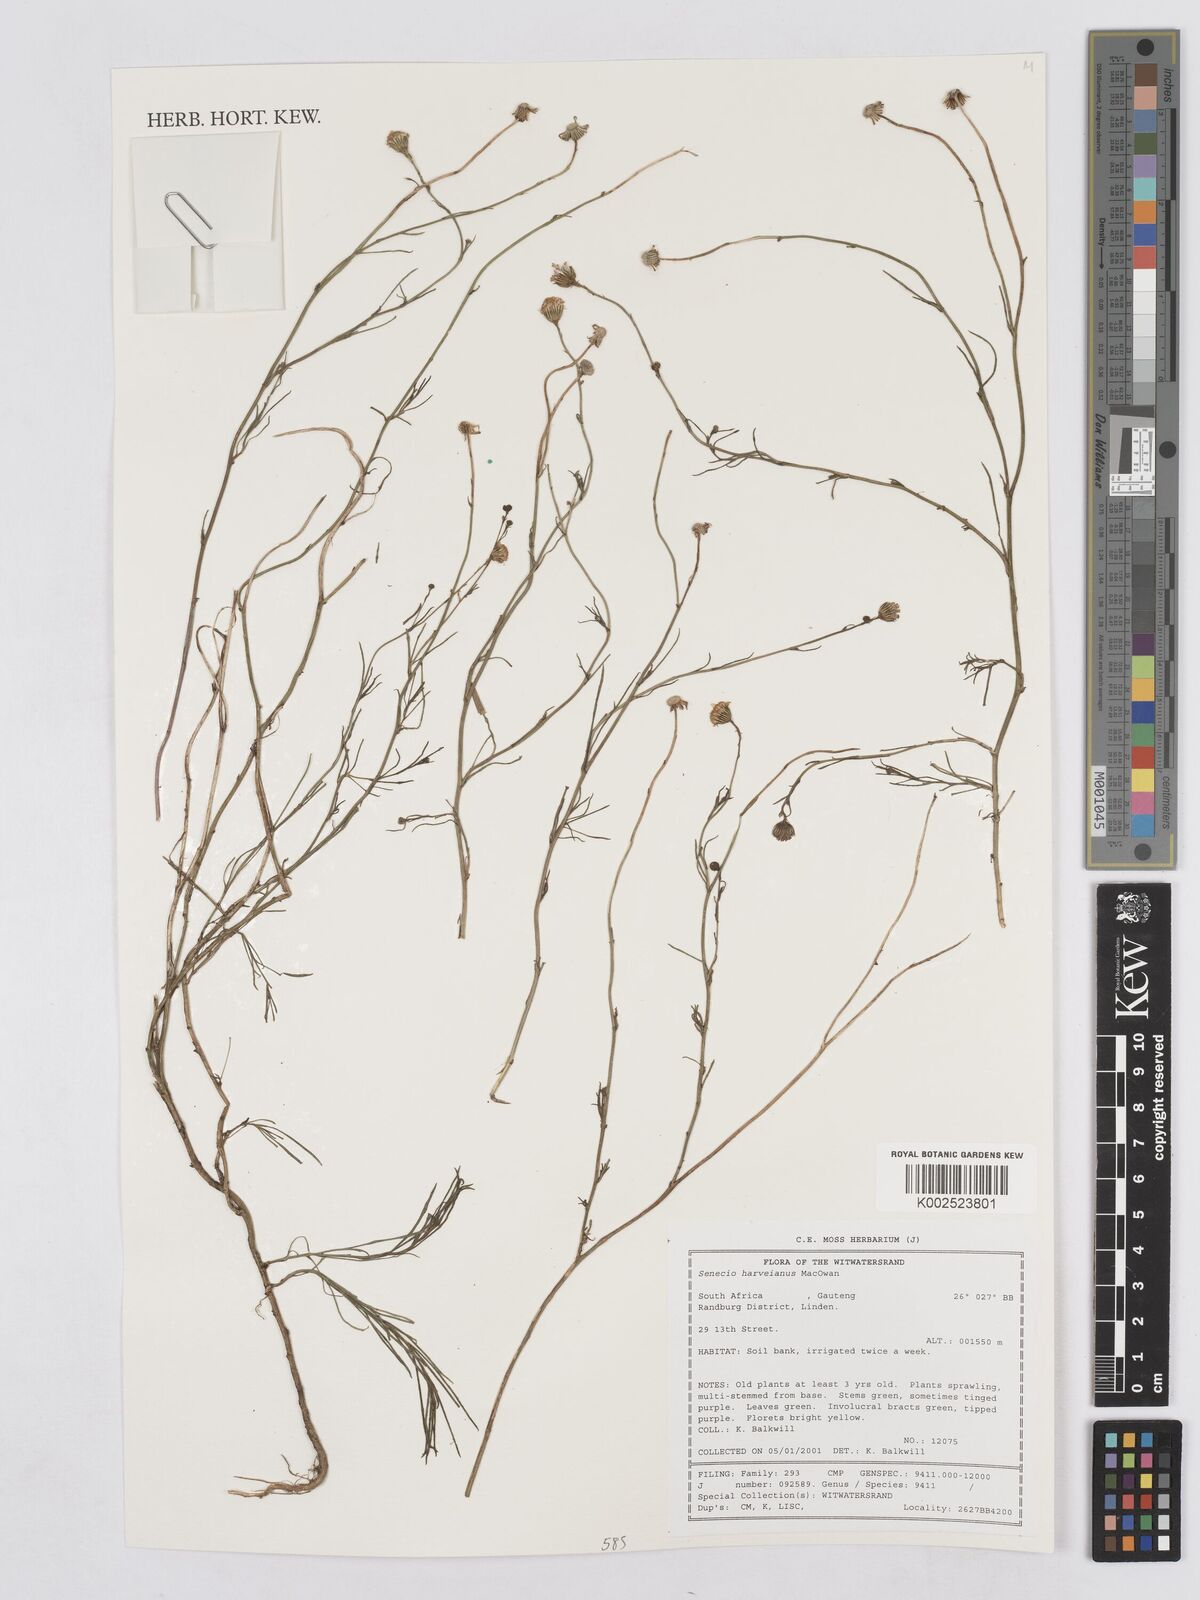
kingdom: Plantae
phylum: Tracheophyta
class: Magnoliopsida
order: Asterales
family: Asteraceae
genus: Senecio
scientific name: Senecio harveyanus
